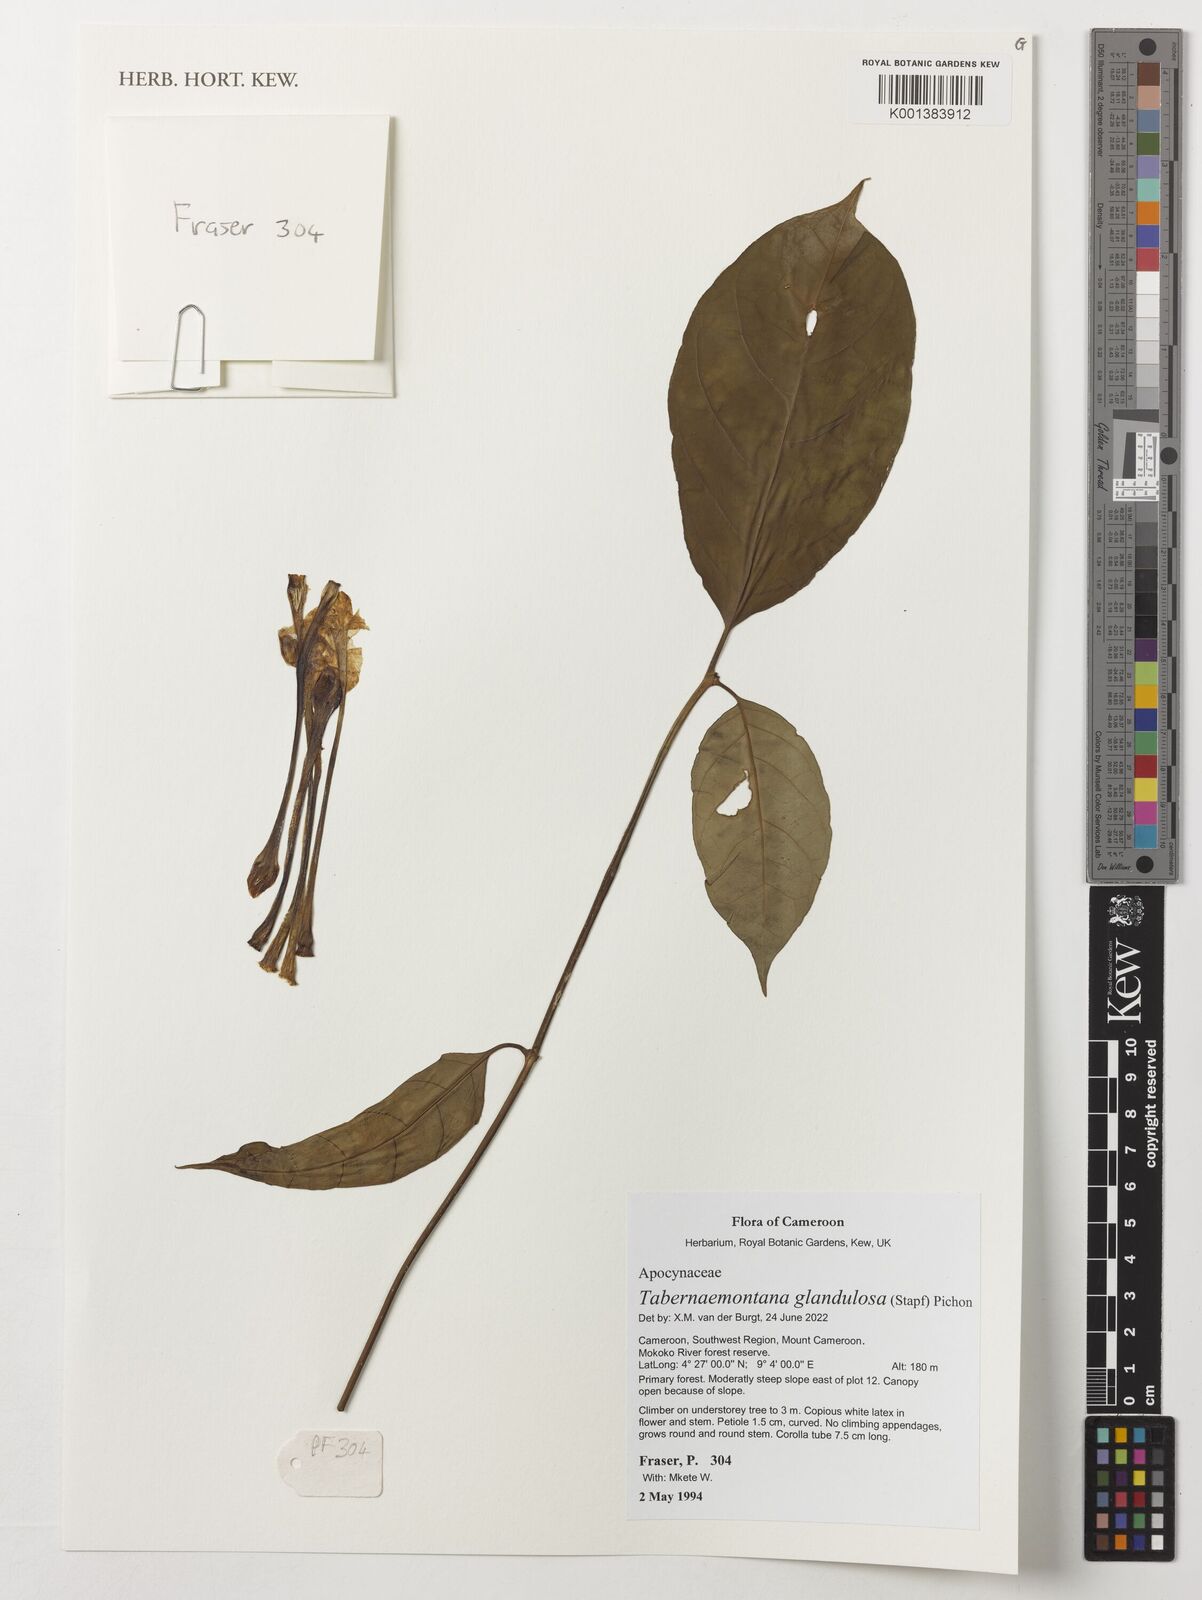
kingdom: Plantae
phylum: Tracheophyta
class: Magnoliopsida
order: Gentianales
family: Apocynaceae
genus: Tabernaemontana
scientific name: Tabernaemontana glandulosa
